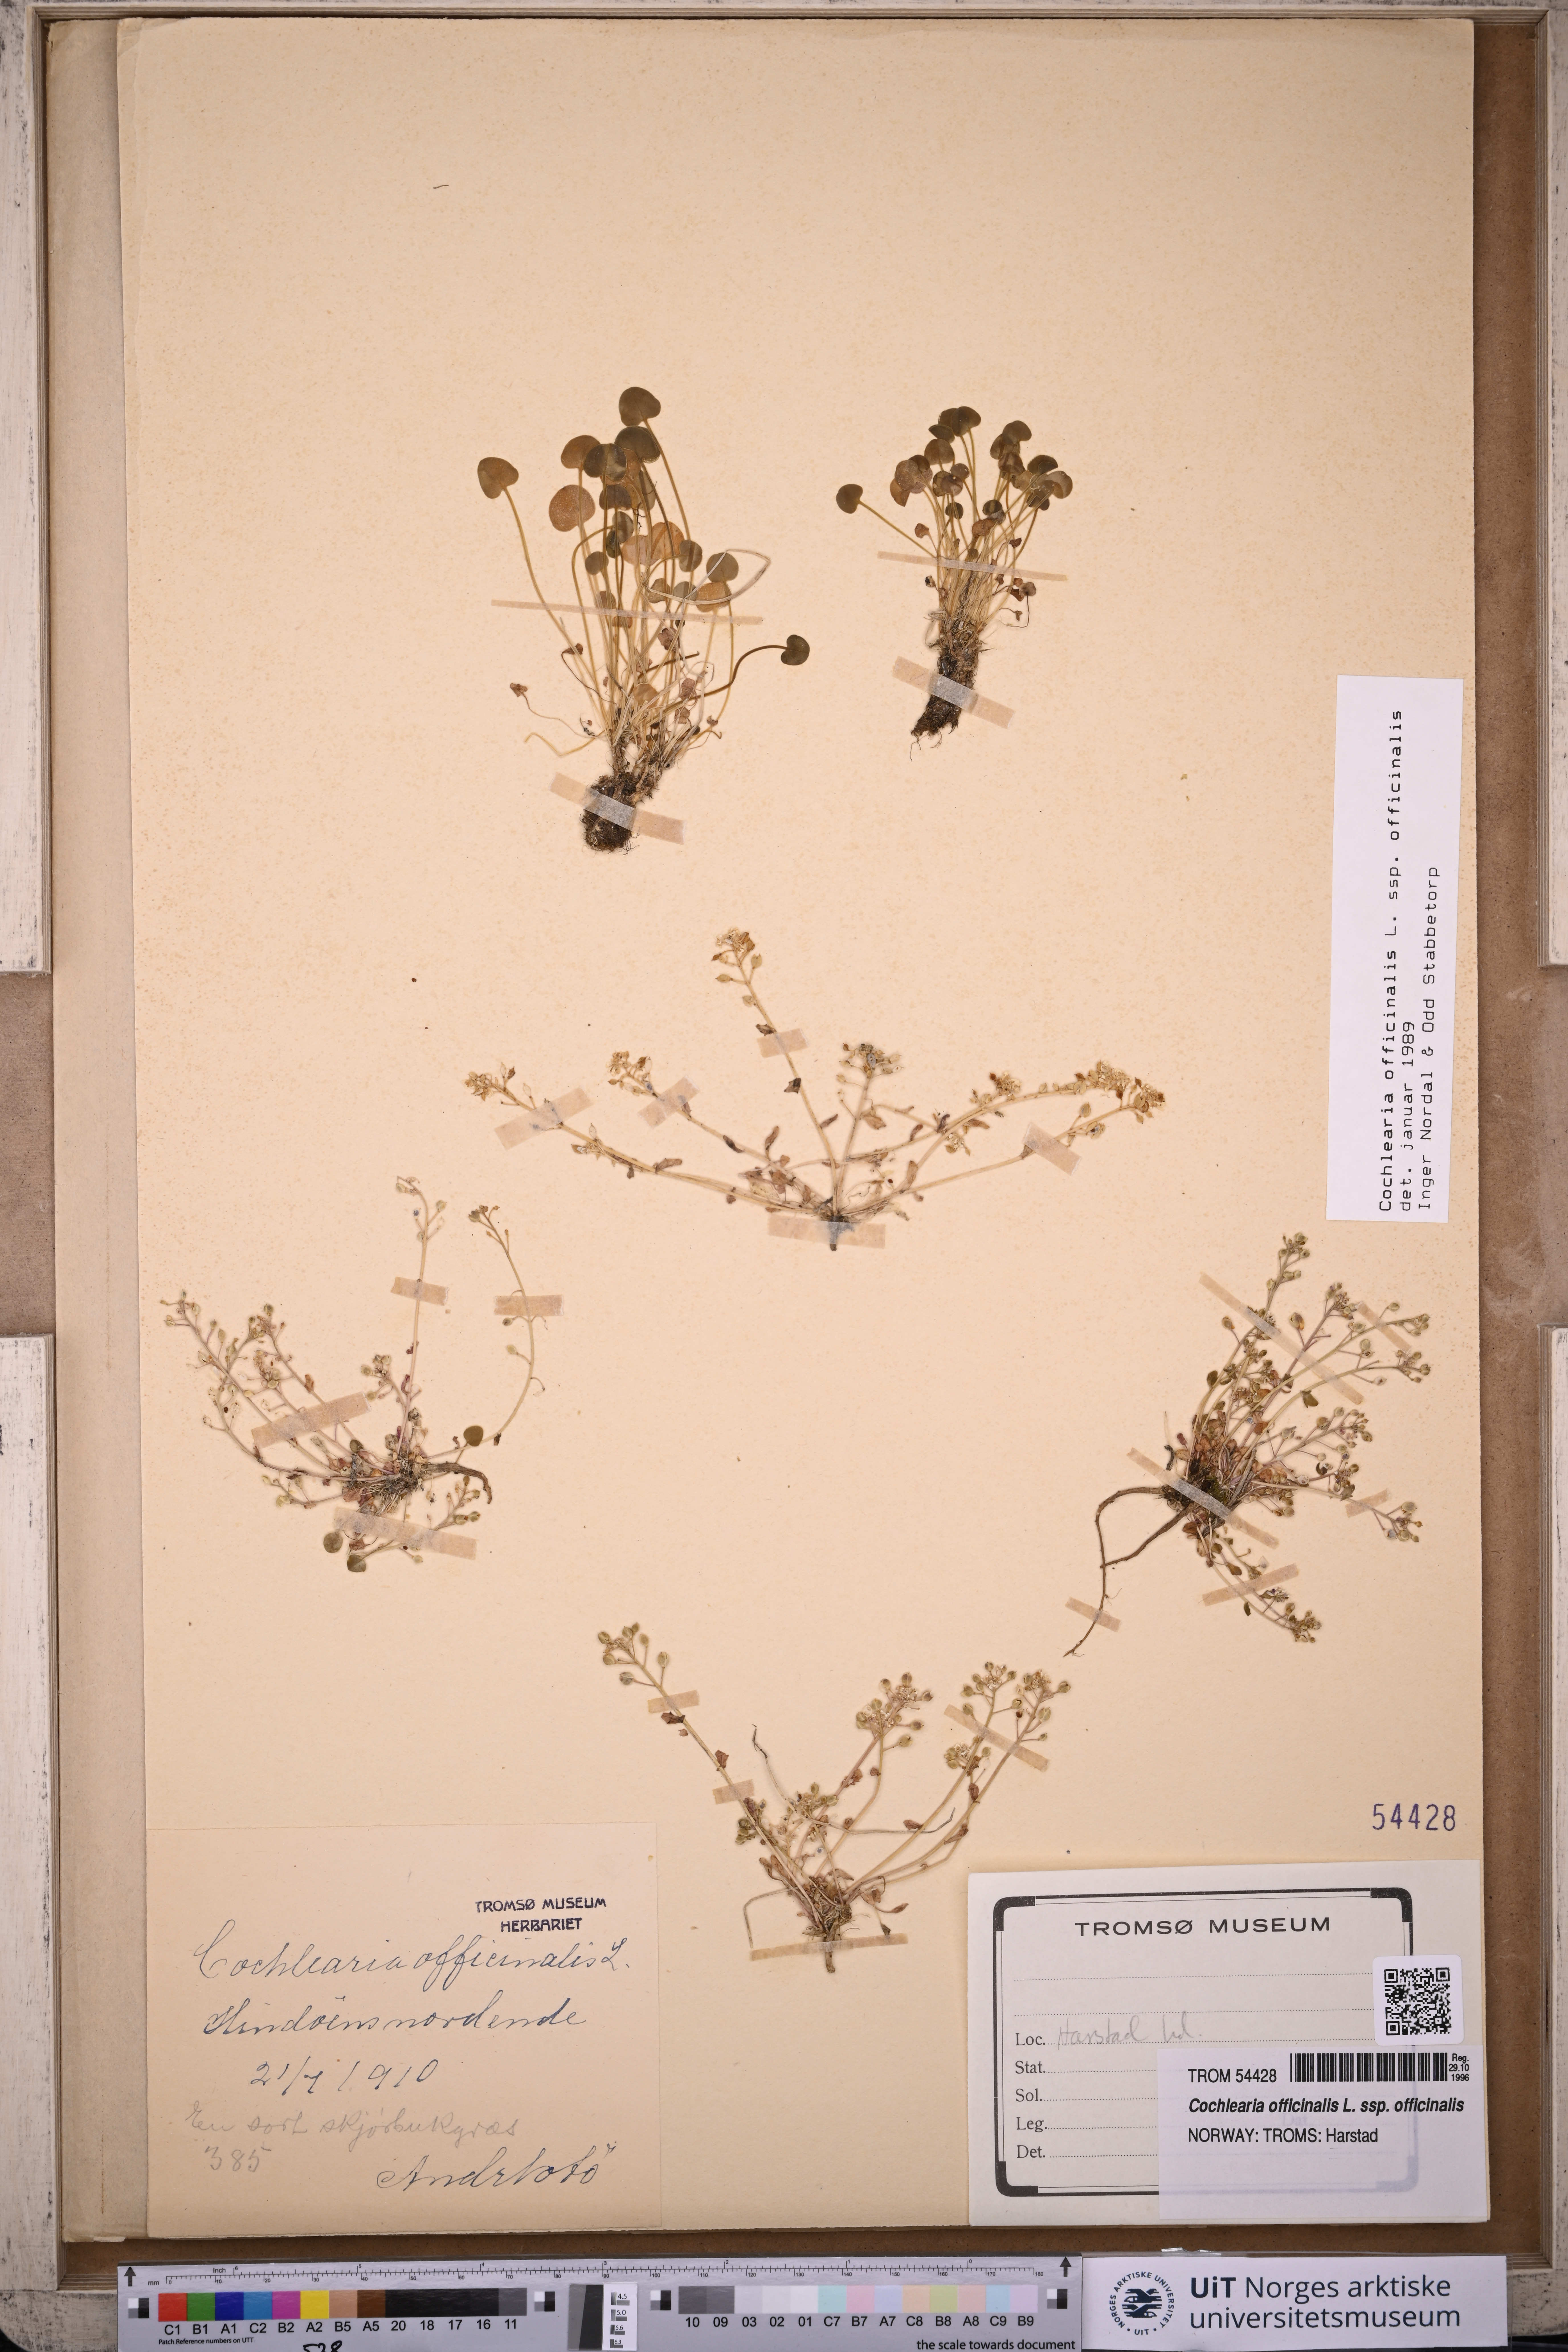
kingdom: Plantae
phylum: Tracheophyta
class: Magnoliopsida
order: Brassicales
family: Brassicaceae
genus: Cochlearia
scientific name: Cochlearia officinalis
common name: Scurvy-grass
